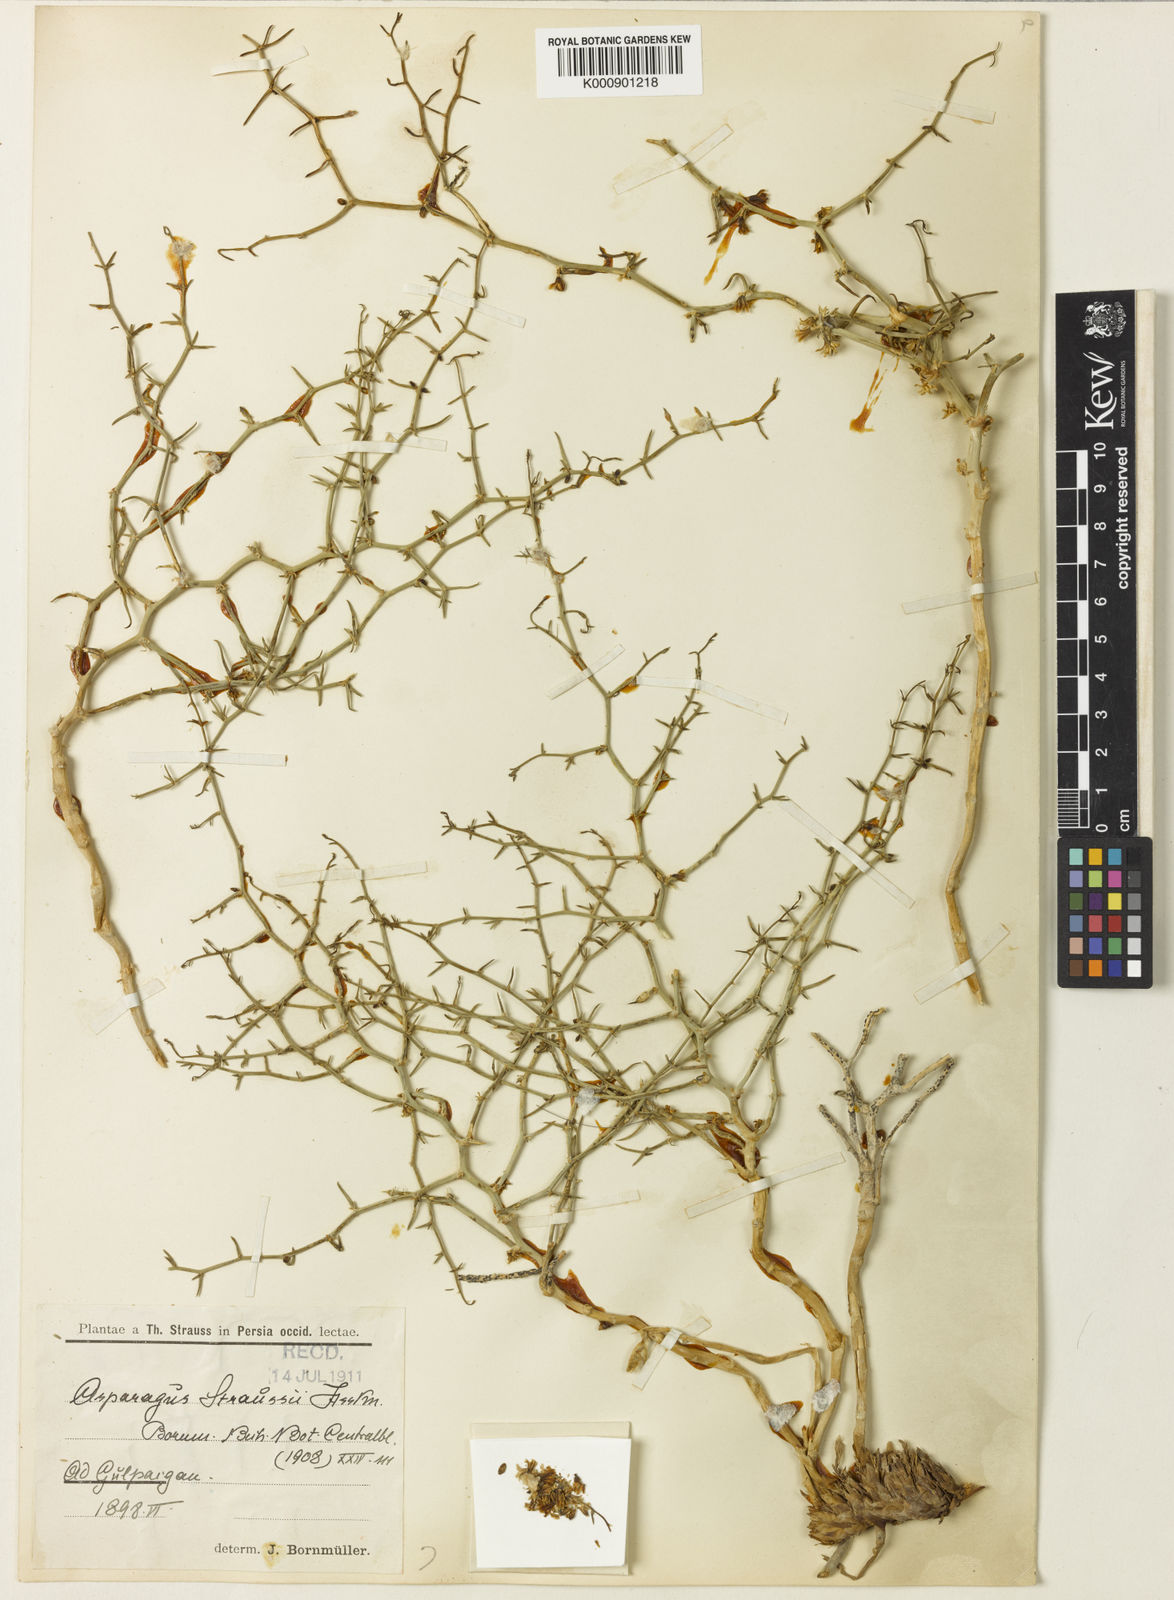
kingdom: Plantae
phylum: Tracheophyta
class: Liliopsida
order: Asparagales
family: Asparagaceae
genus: Asparagus
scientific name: Asparagus
